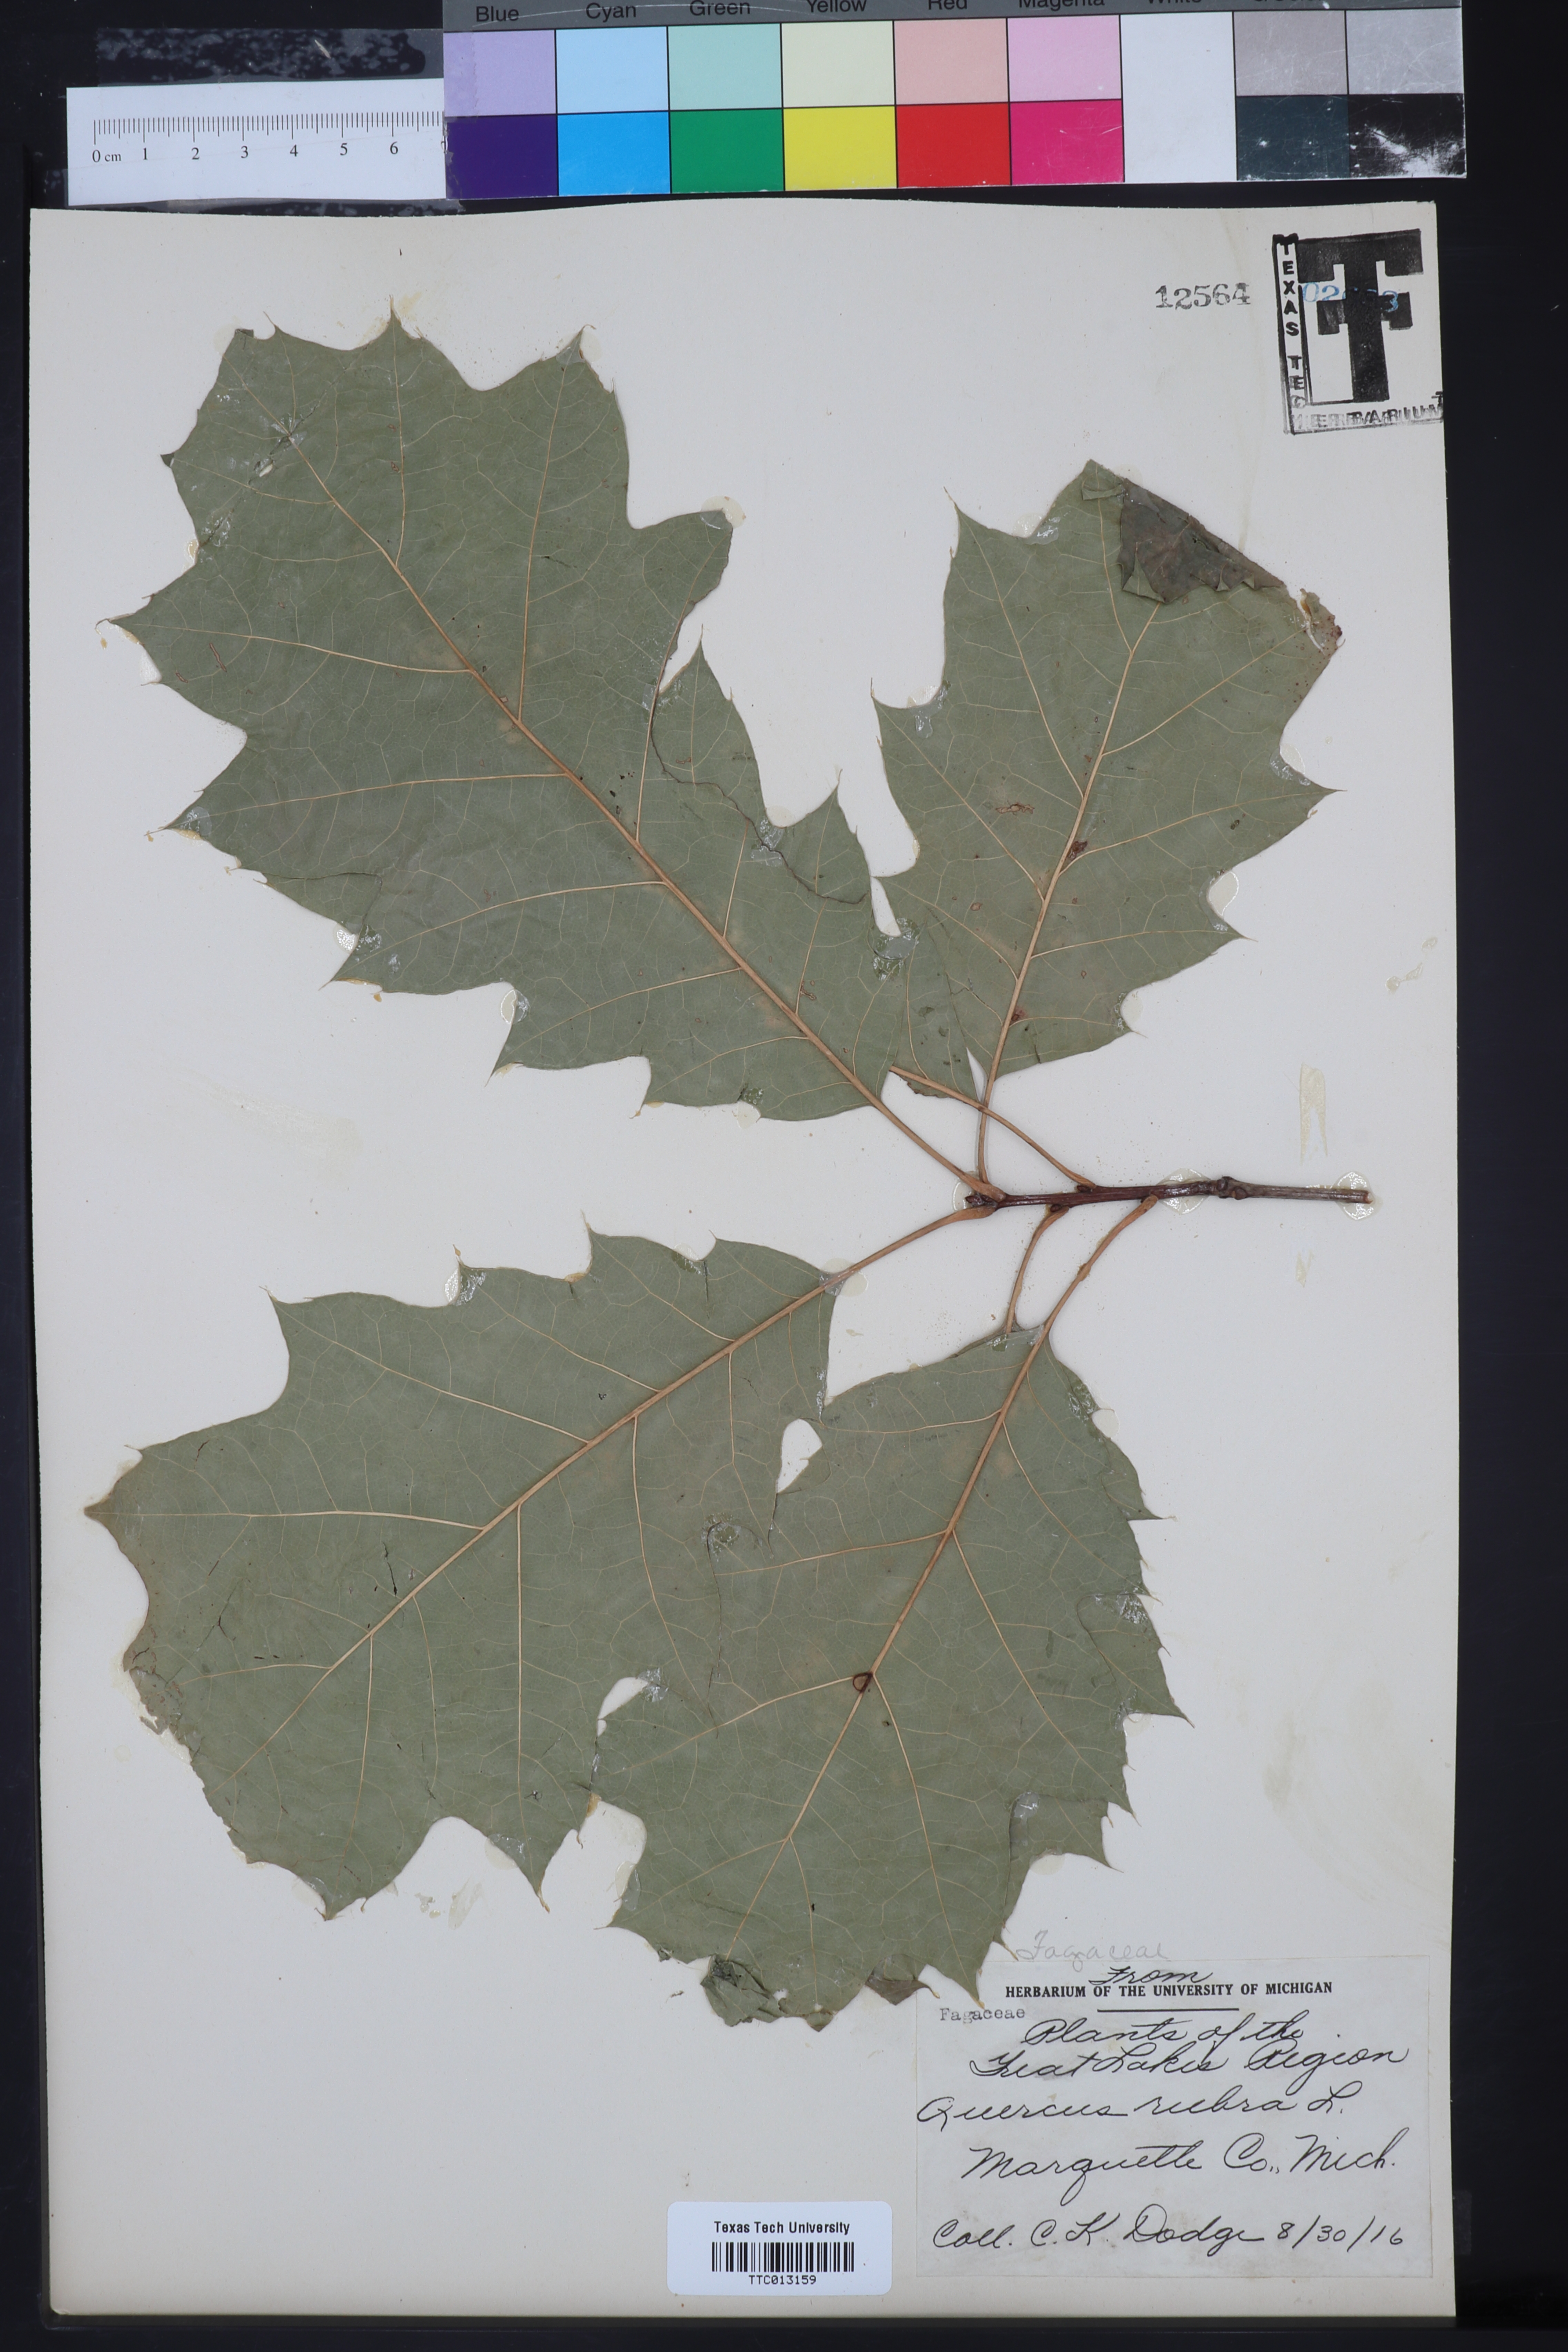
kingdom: Plantae
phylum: Tracheophyta
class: Magnoliopsida
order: Fagales
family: Fagaceae
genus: Quercus
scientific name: Quercus rubra
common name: Red oak
